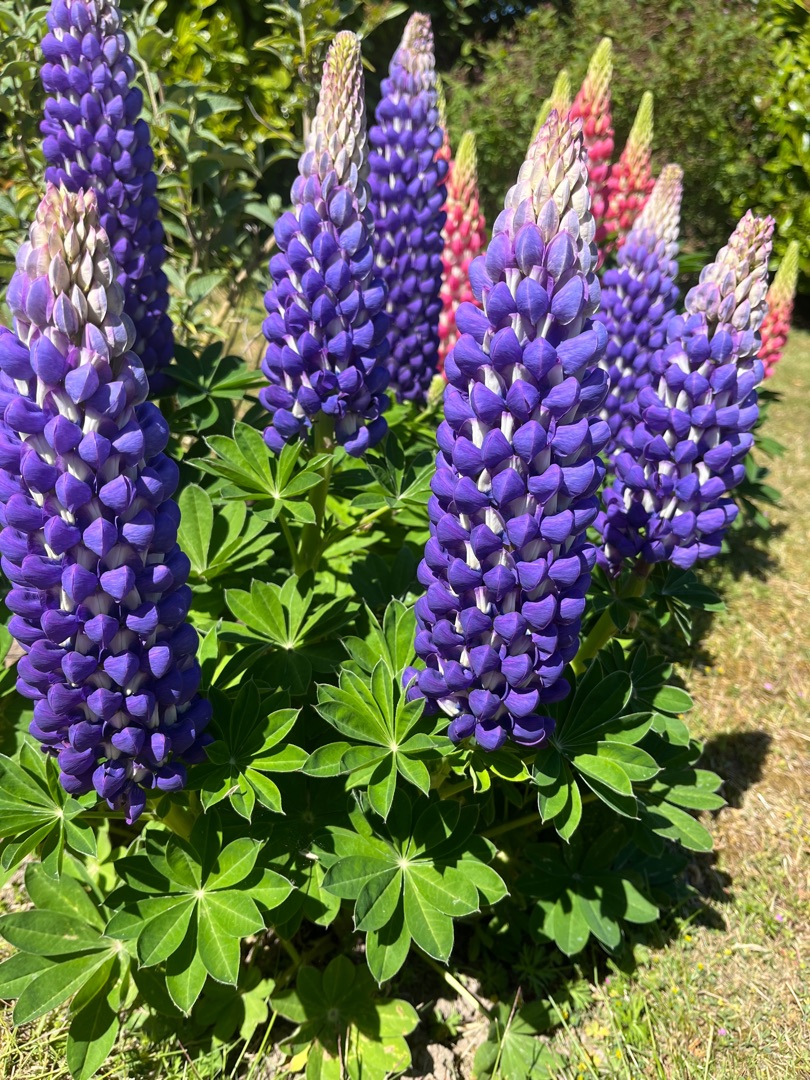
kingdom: Plantae
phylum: Tracheophyta
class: Magnoliopsida
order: Fabales
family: Fabaceae
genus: Lupinus
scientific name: Lupinus polyphyllus
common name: Mangebladet lupin
